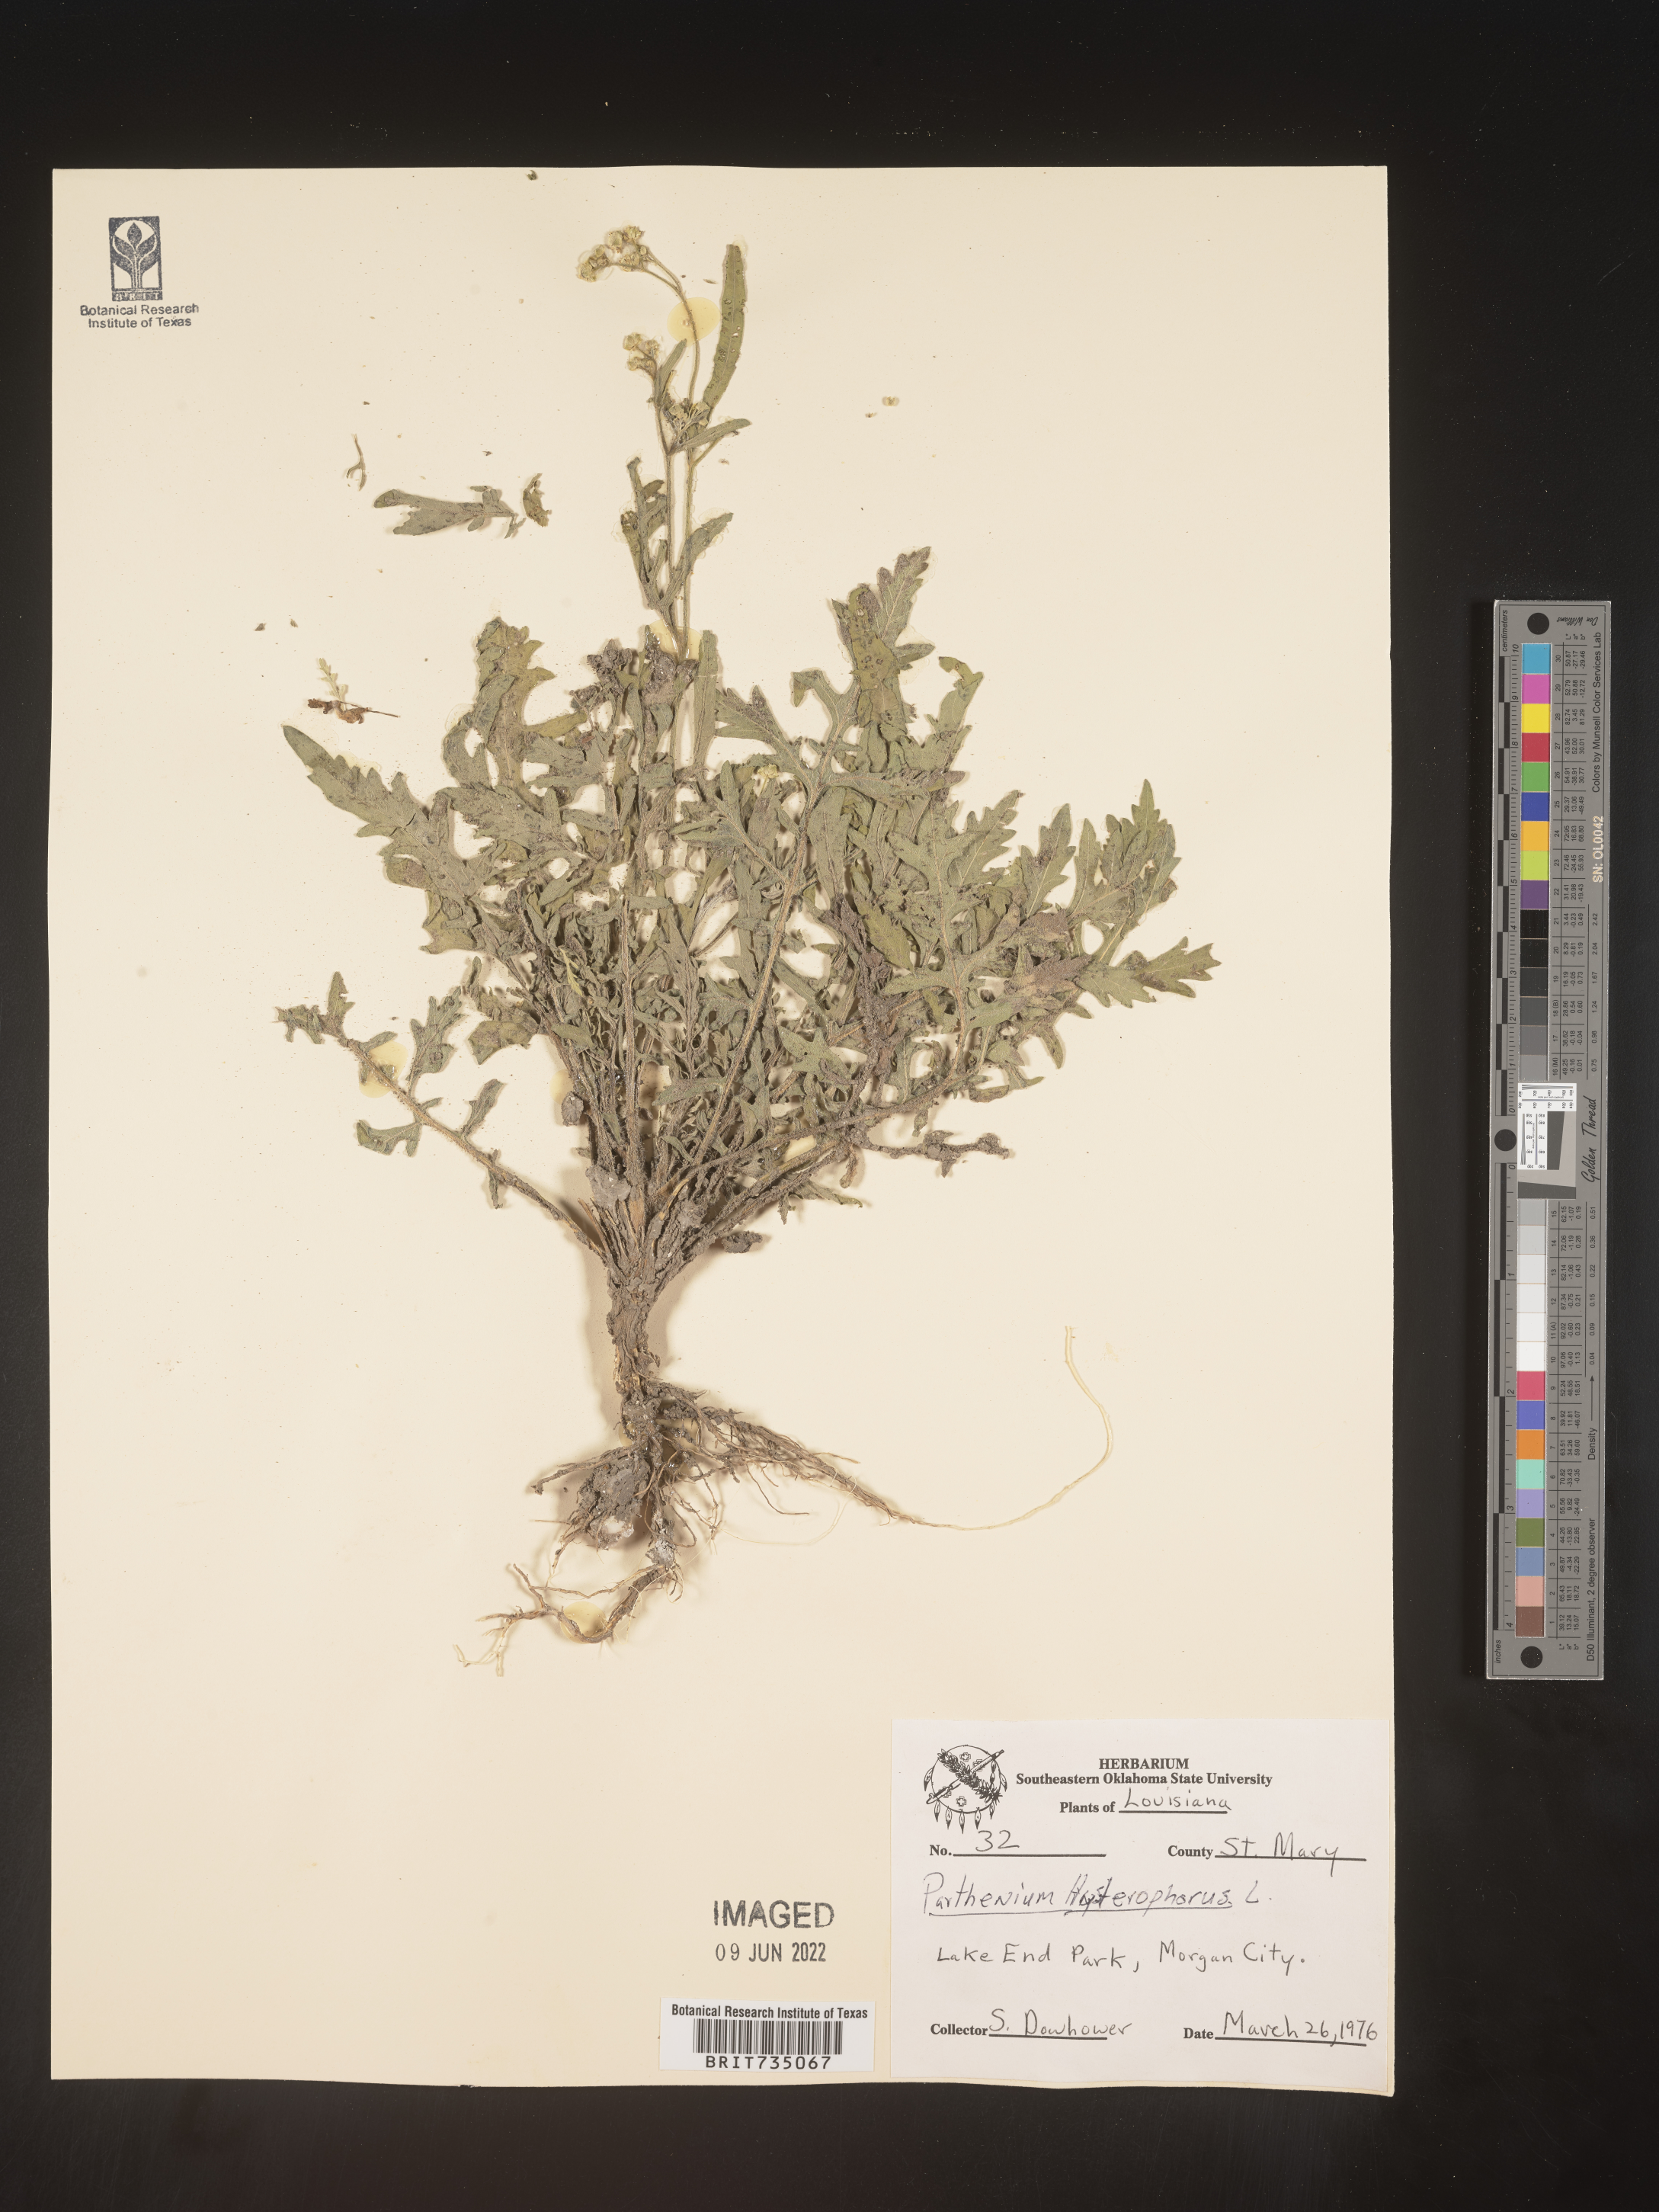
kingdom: Plantae
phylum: Tracheophyta
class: Magnoliopsida
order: Asterales
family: Asteraceae
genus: Parthenium
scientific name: Parthenium hysterophorus
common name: Santa maria feverfew
